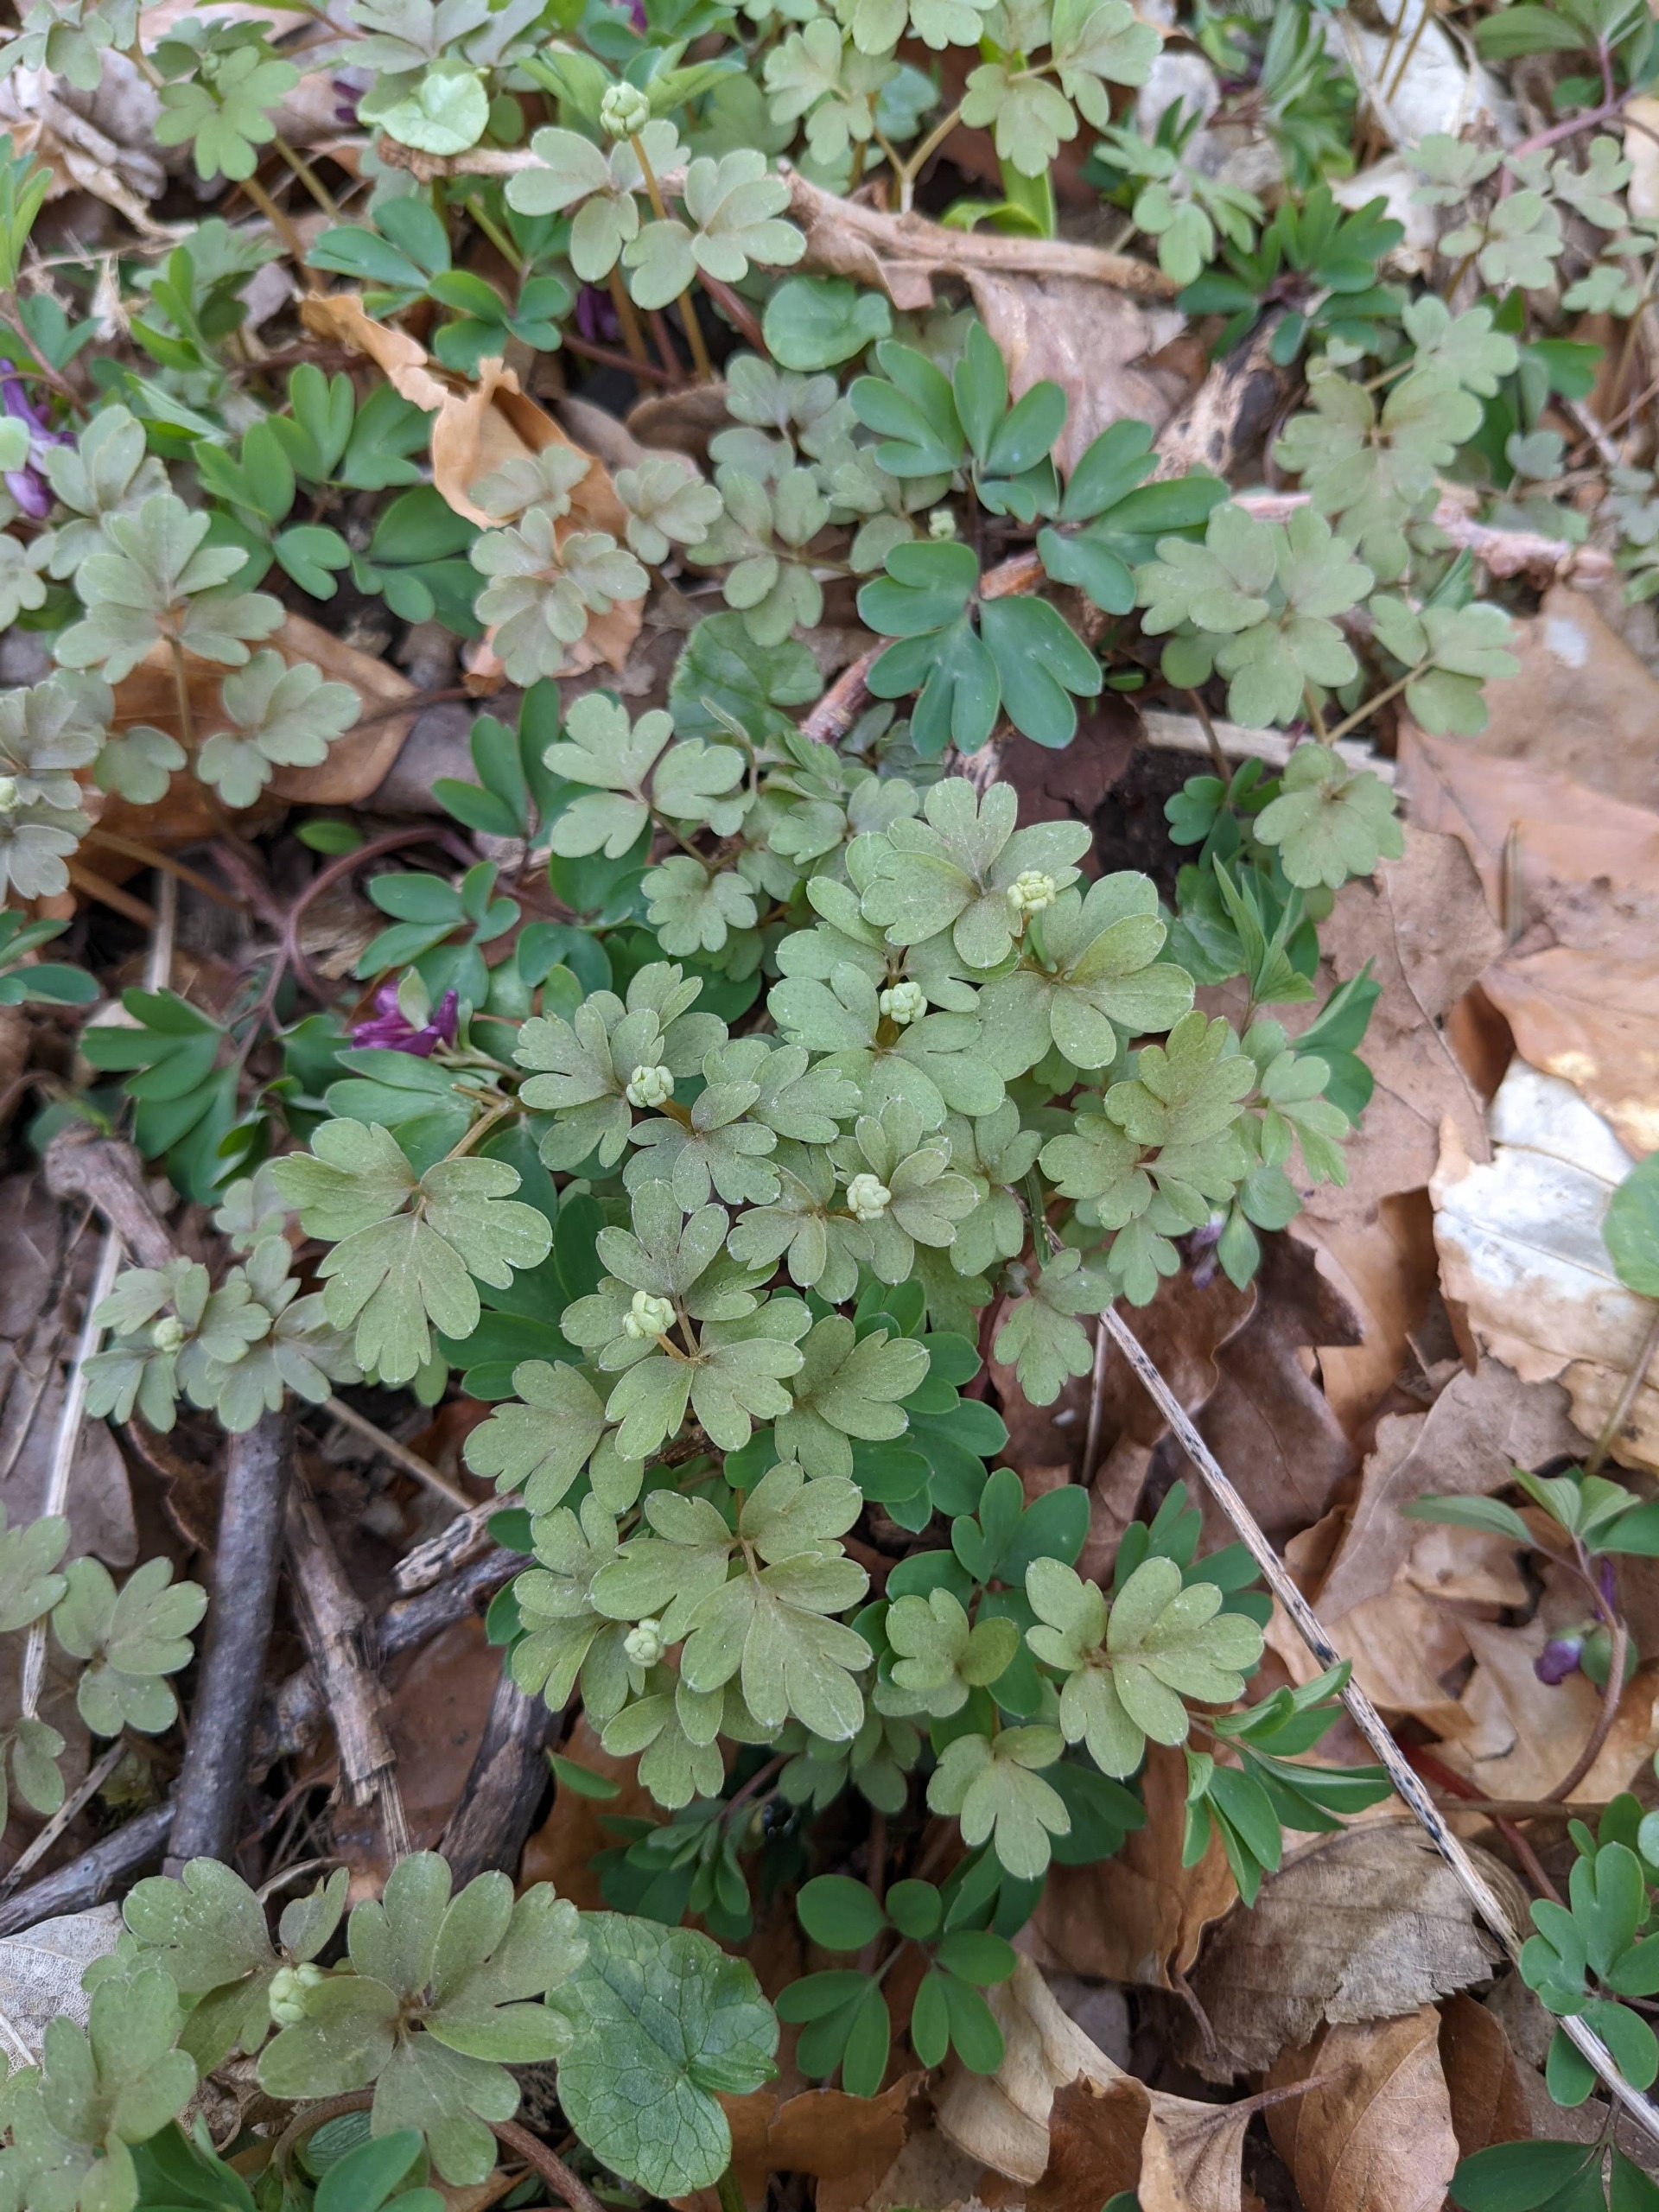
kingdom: Plantae
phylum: Tracheophyta
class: Magnoliopsida
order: Dipsacales
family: Viburnaceae
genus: Adoxa
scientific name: Adoxa moschatellina
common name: Desmerurt
